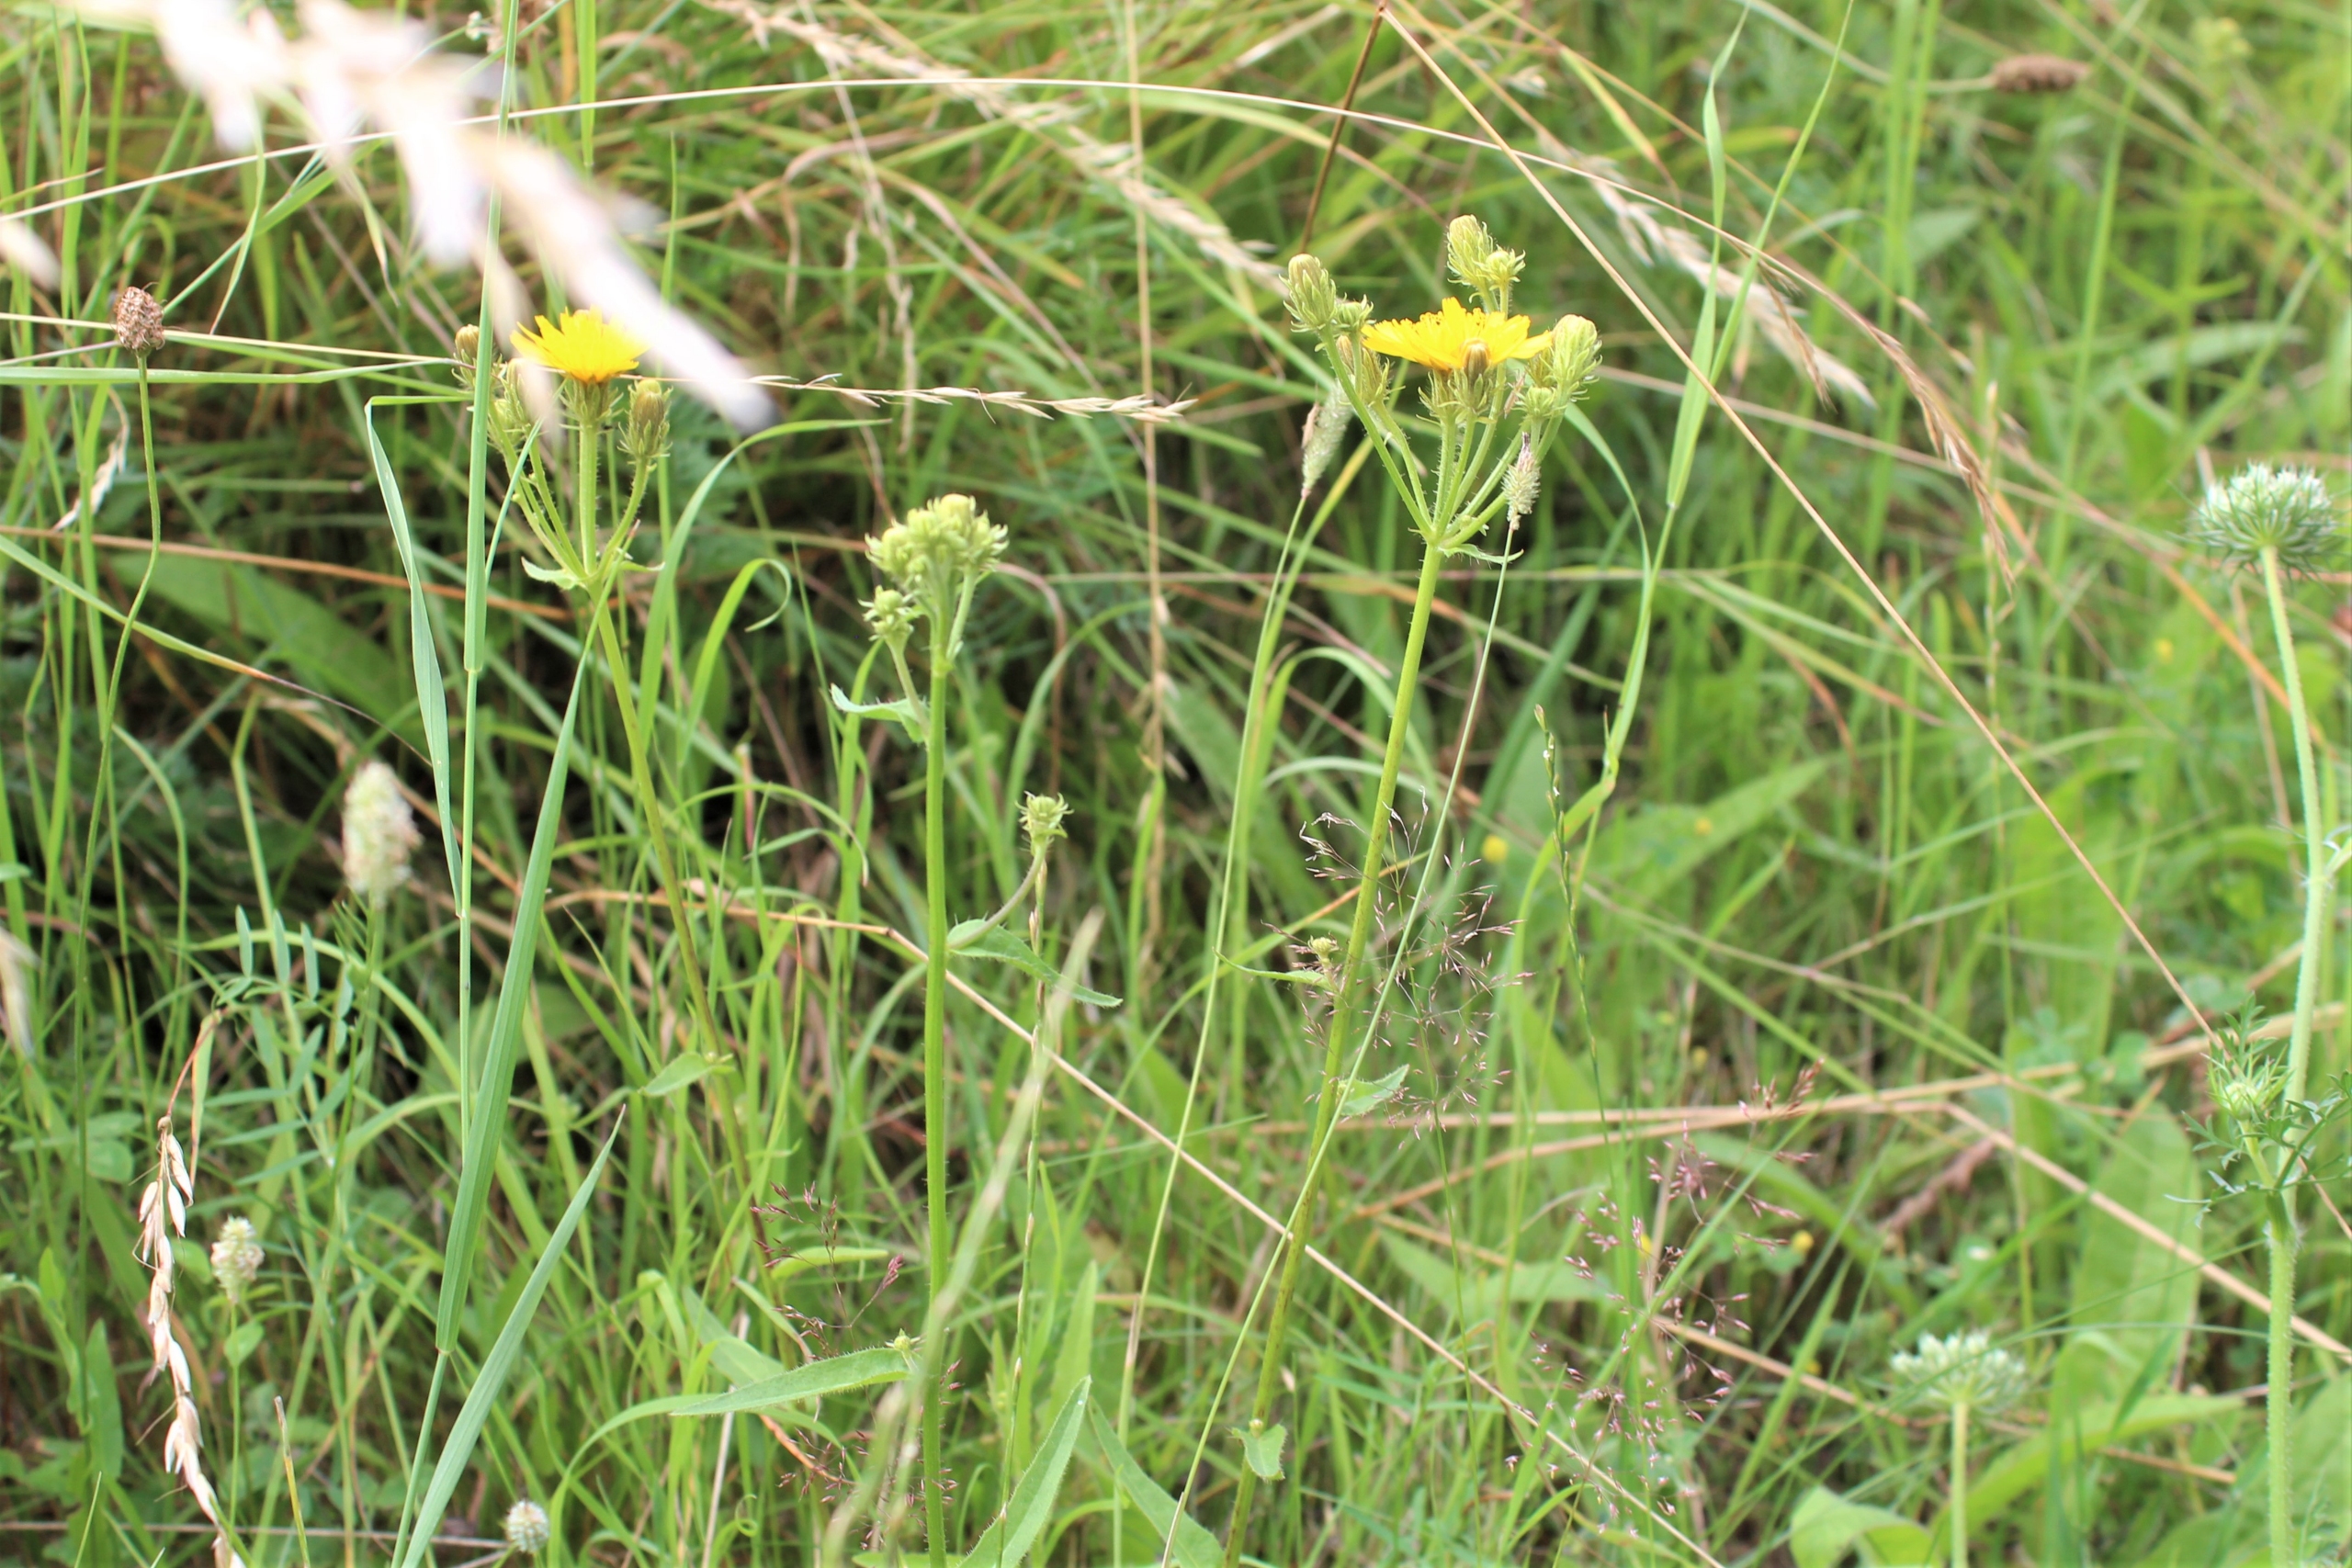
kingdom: Plantae
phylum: Tracheophyta
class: Magnoliopsida
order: Asterales
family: Asteraceae
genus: Picris
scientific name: Picris hieracioides
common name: Ru bittermælk
